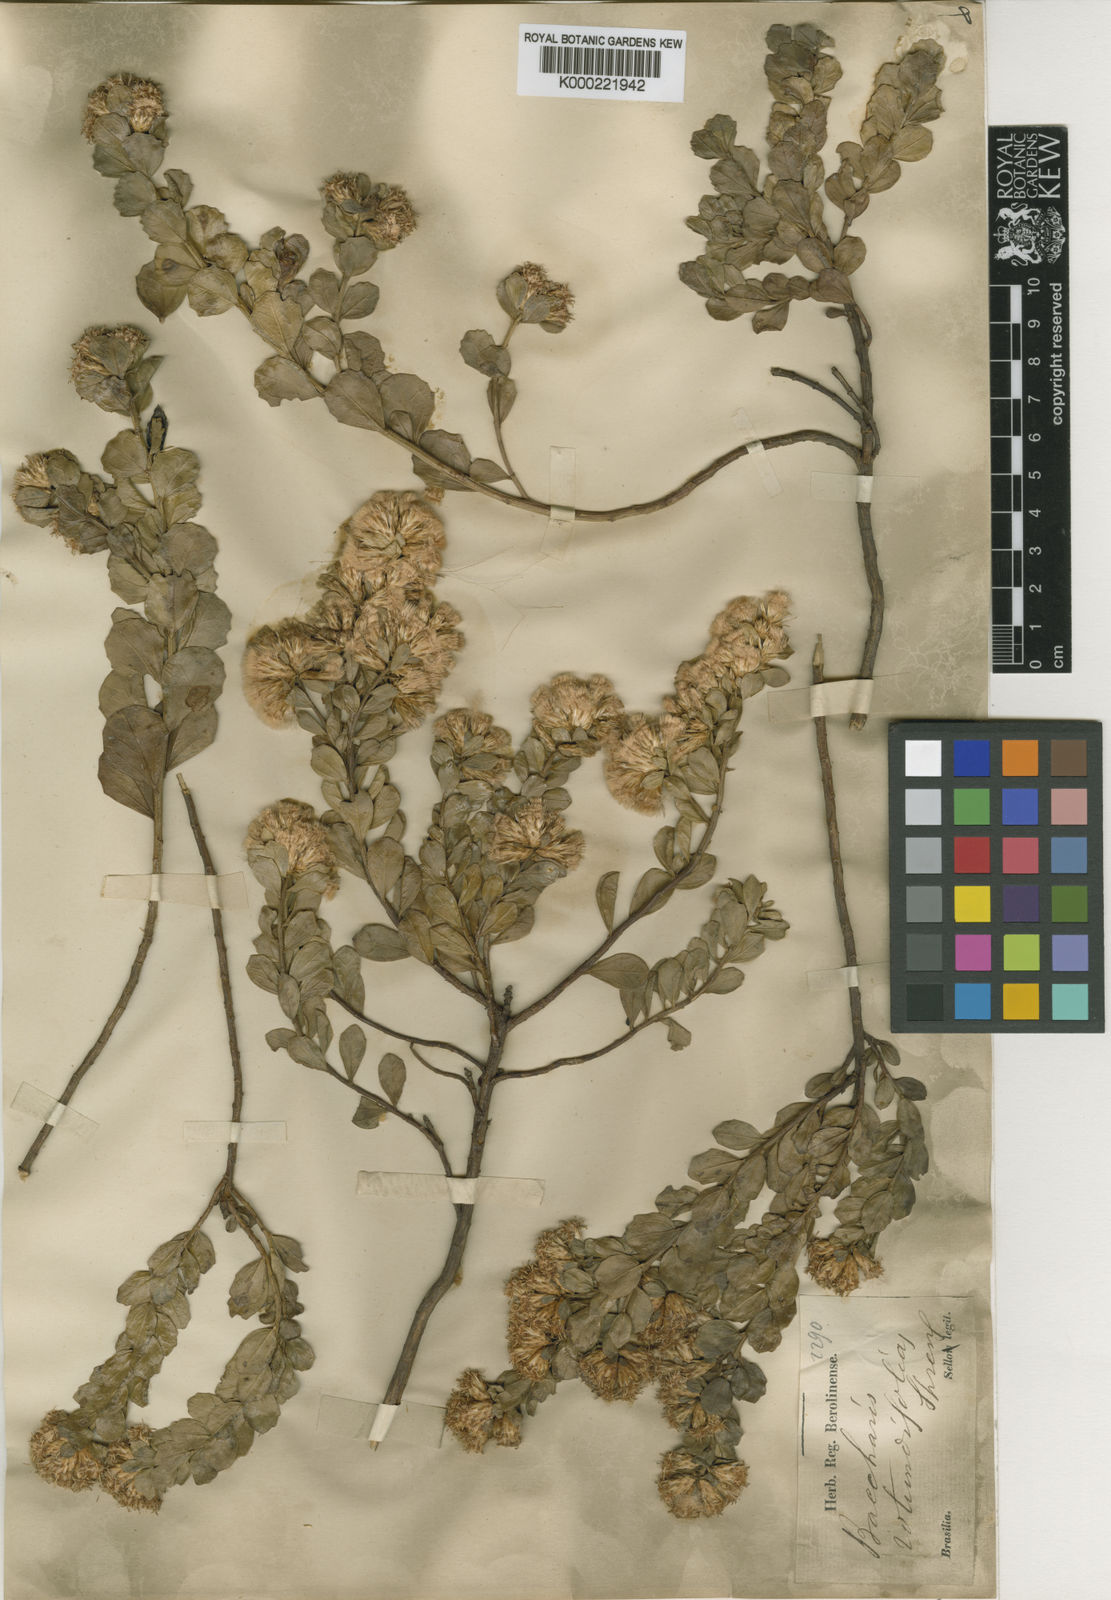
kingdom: Plantae
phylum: Tracheophyta
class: Magnoliopsida
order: Asterales
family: Asteraceae
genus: Baccharis
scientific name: Baccharis sessiliflora
